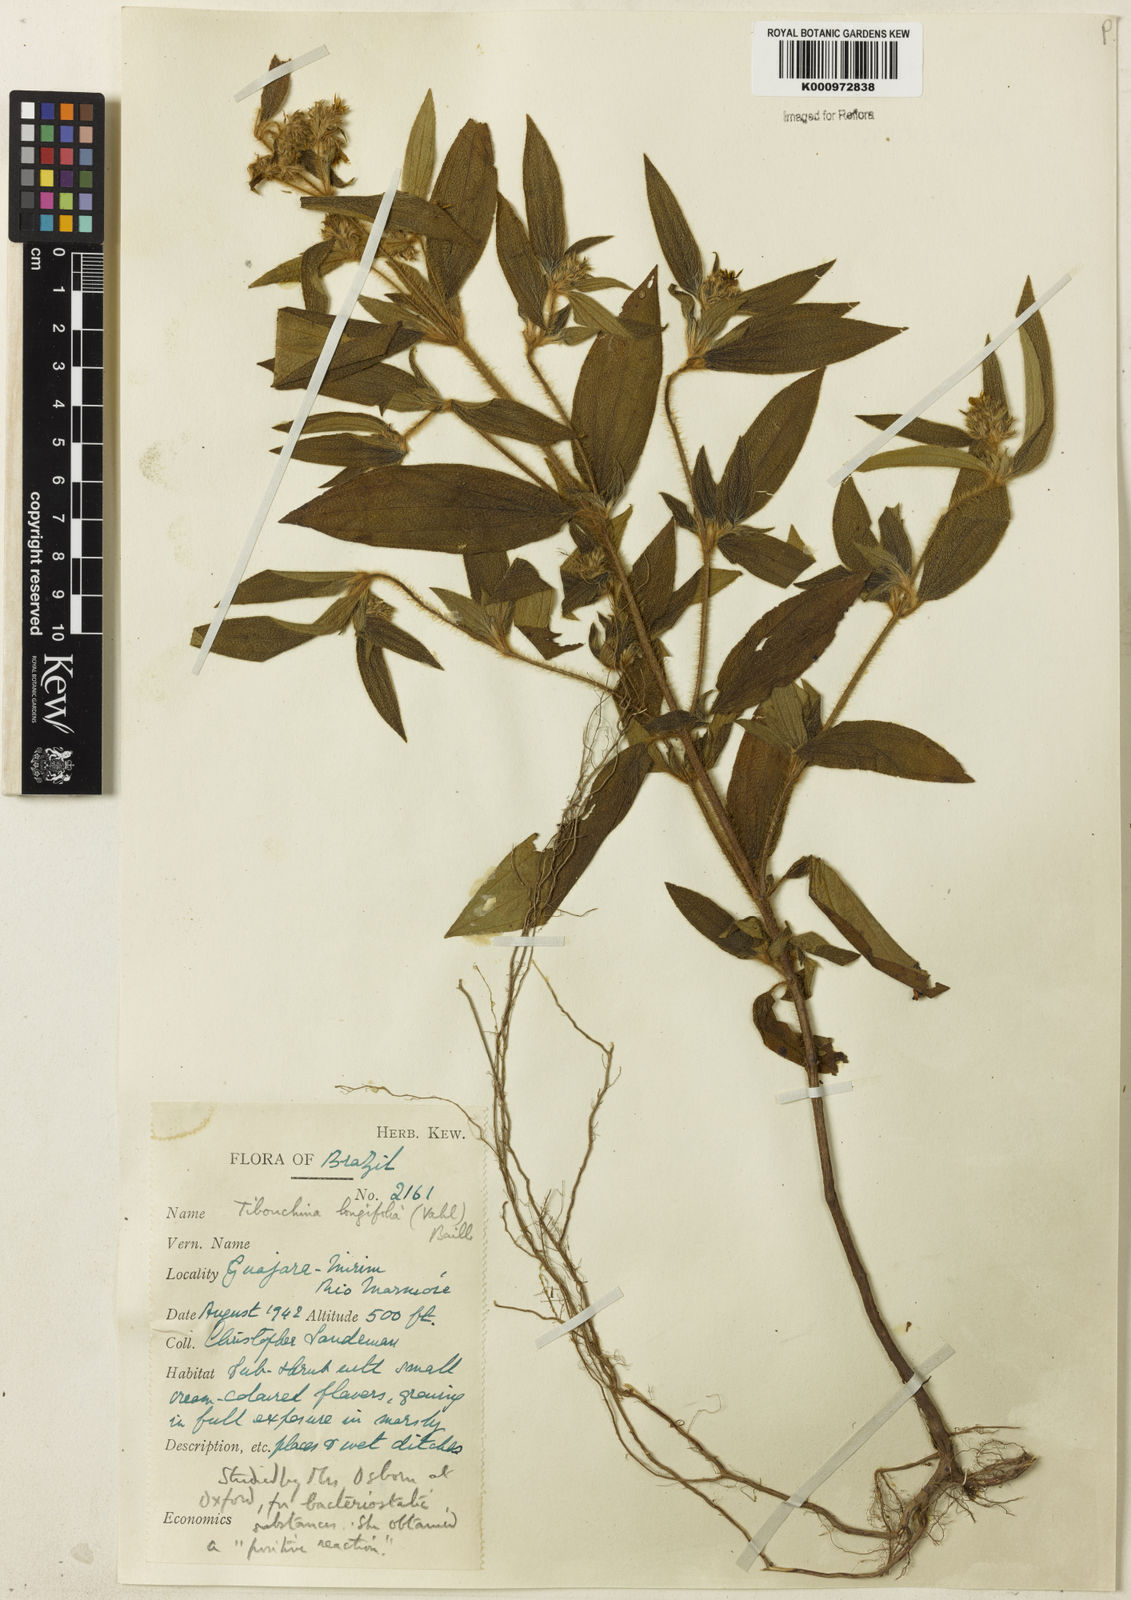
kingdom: Plantae
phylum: Tracheophyta
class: Magnoliopsida
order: Myrtales
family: Melastomataceae
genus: Chaetogastra
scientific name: Chaetogastra longifolia
